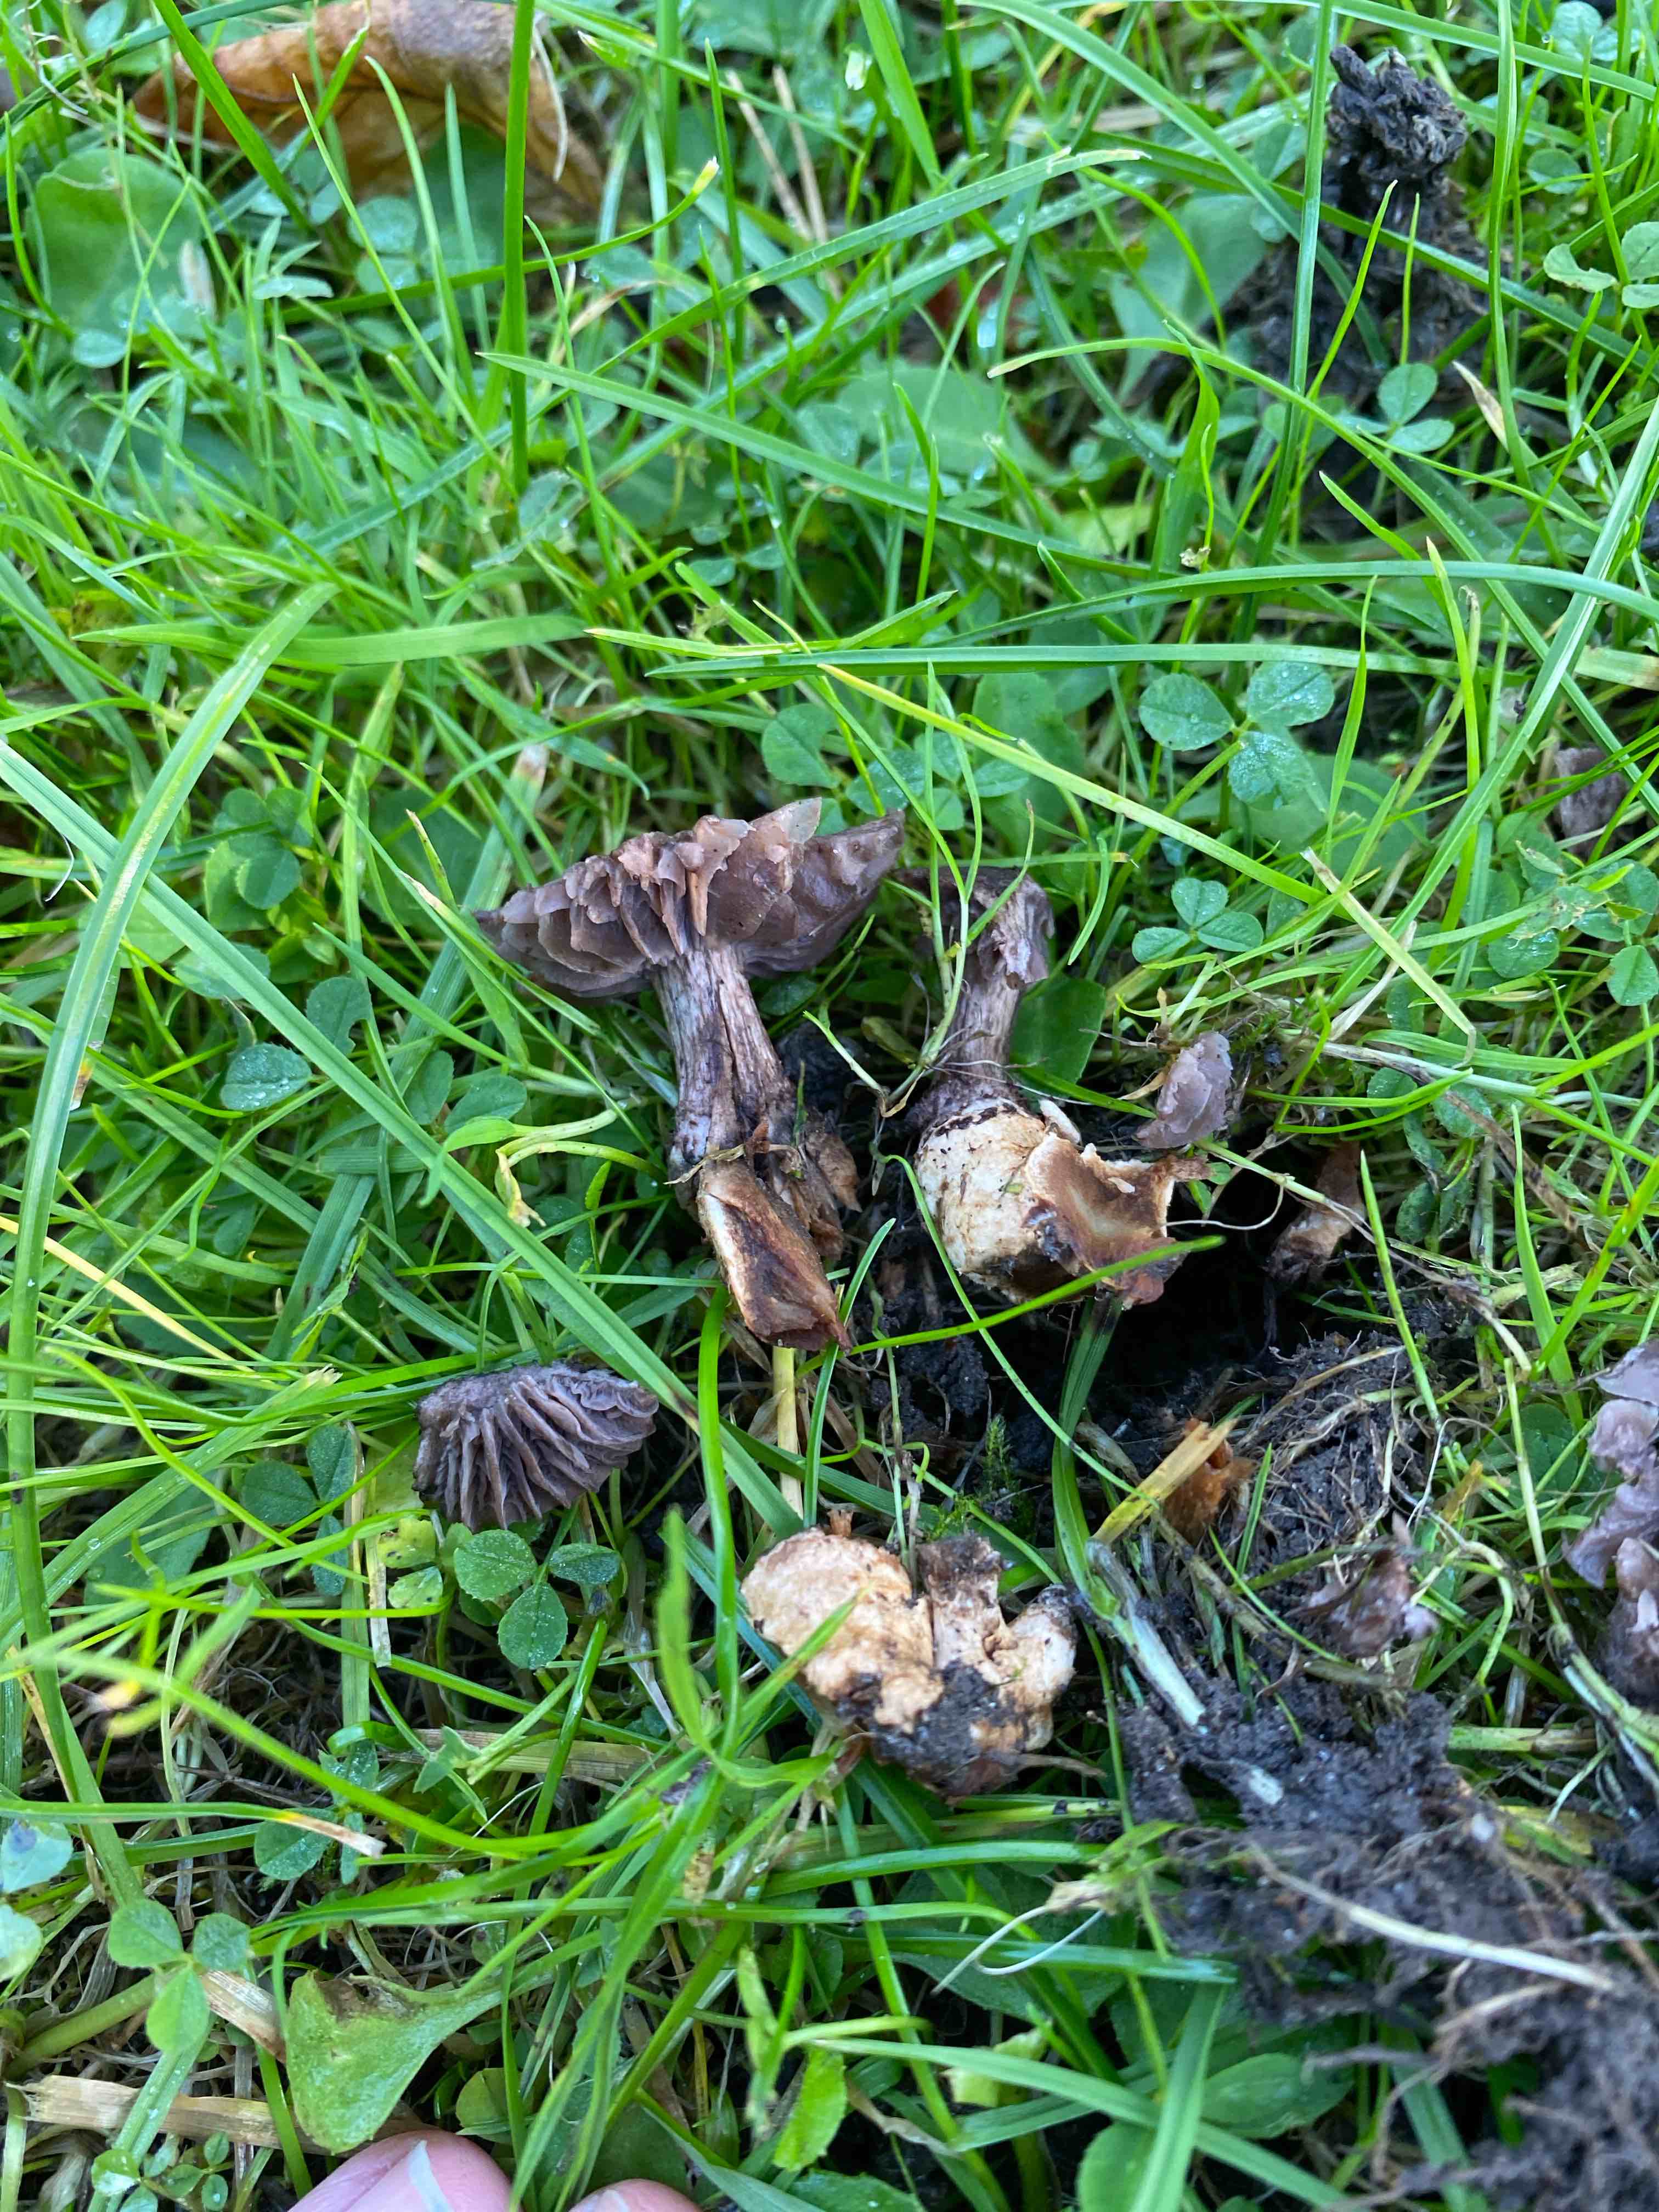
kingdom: Fungi
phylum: Basidiomycota
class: Agaricomycetes
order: Agaricales
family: Squamanitaceae
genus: Dissoderma
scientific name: Dissoderma odoratum
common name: vellugtende knoldfod
